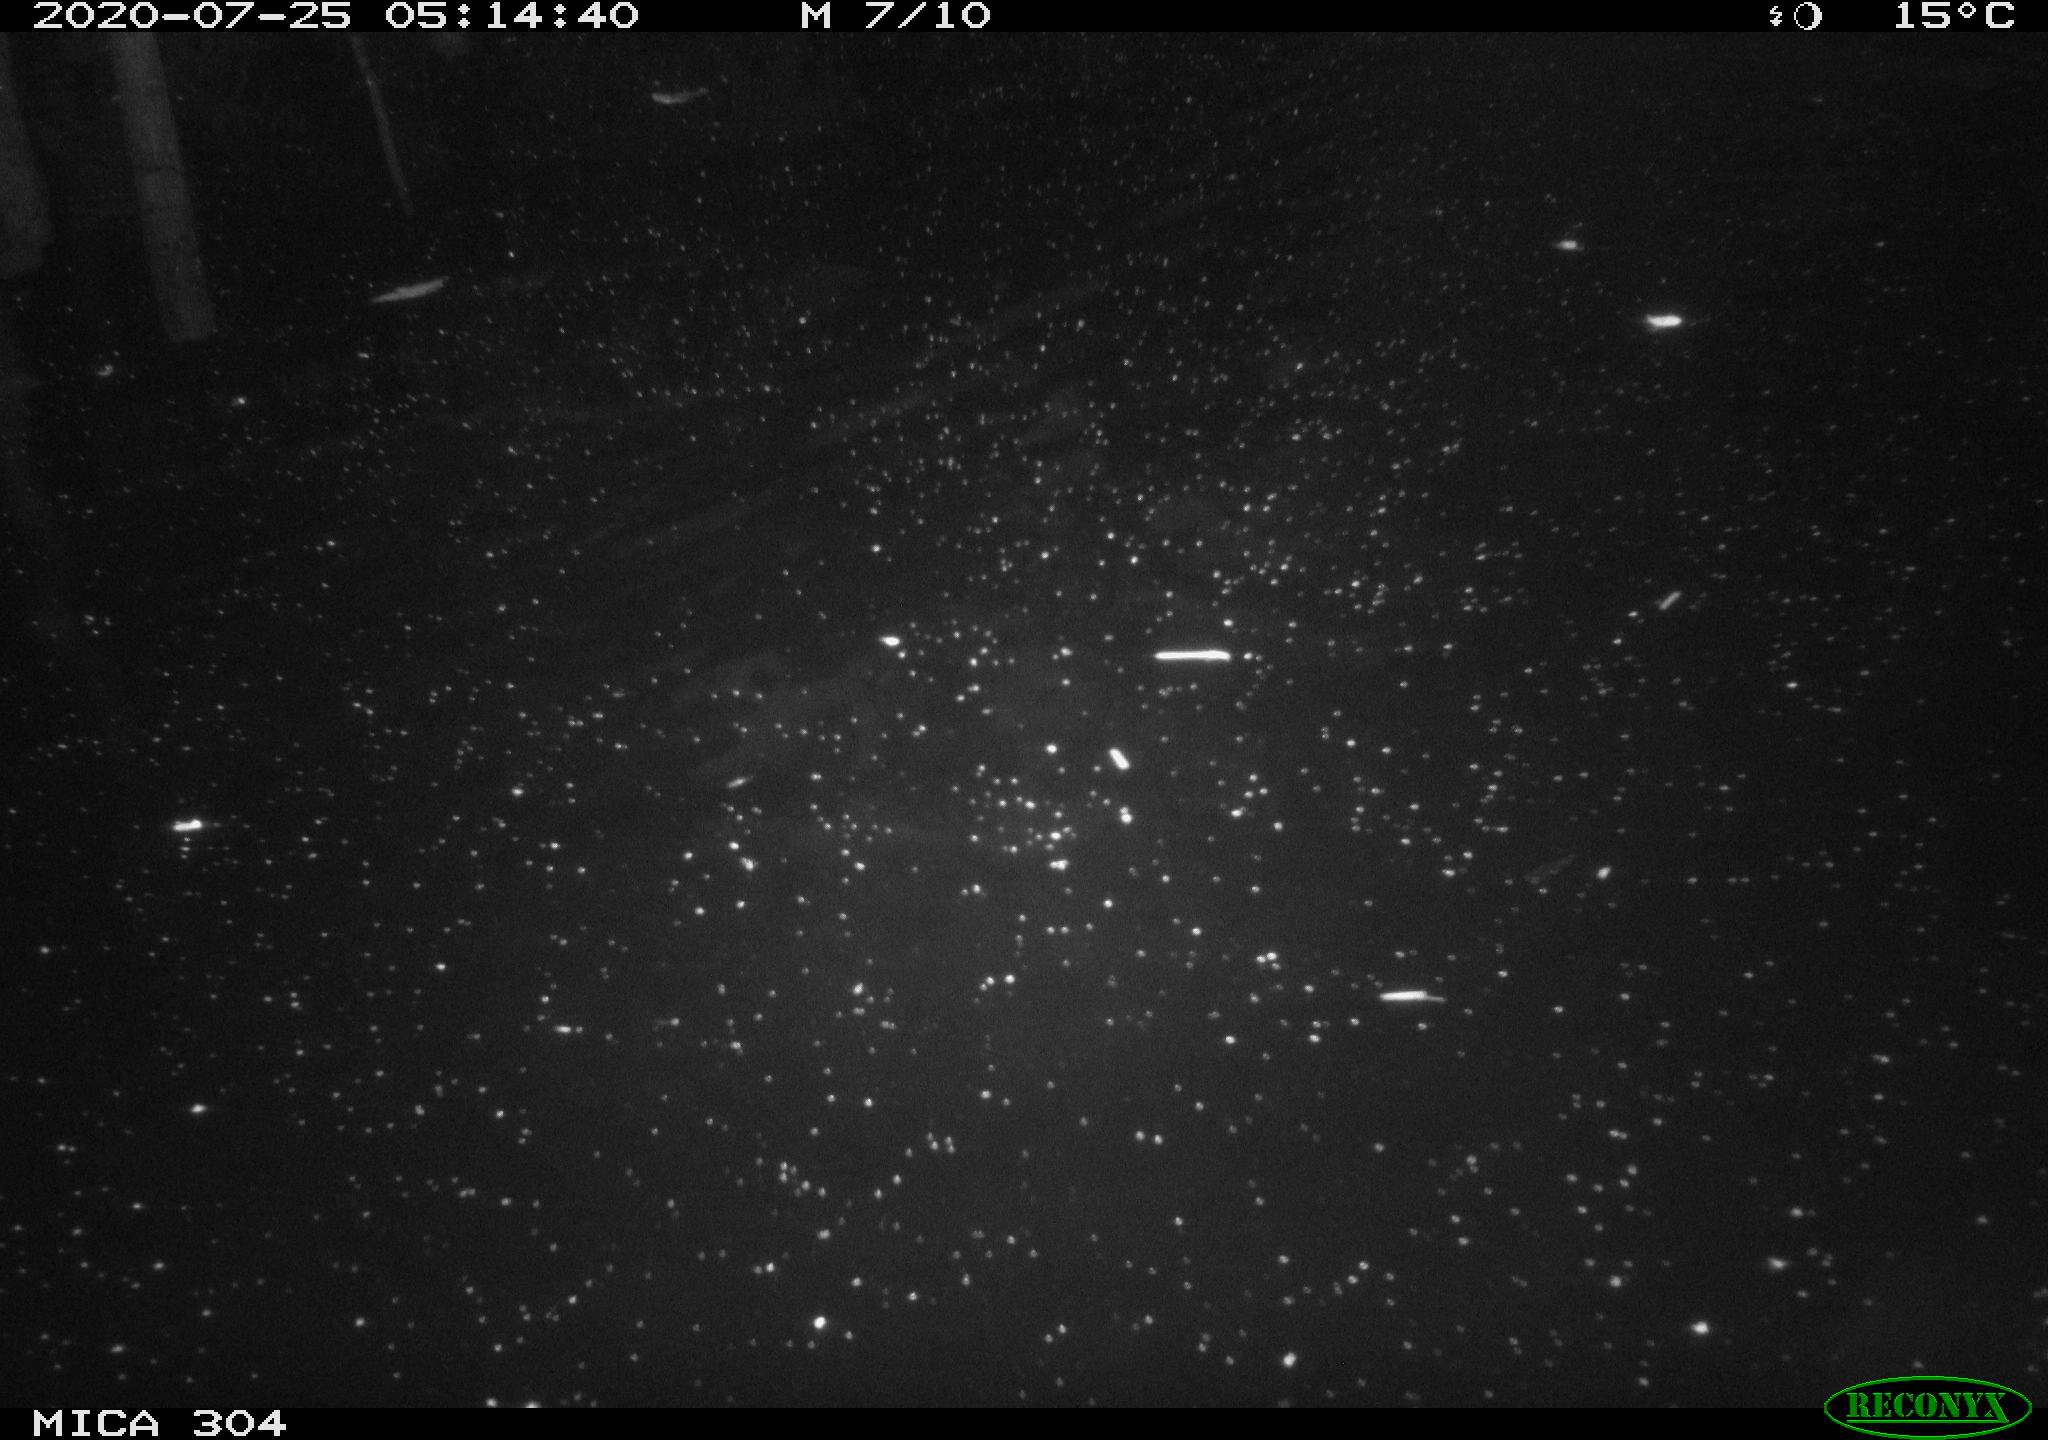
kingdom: Animalia
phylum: Chordata
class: Aves
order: Anseriformes
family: Anatidae
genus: Anas
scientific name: Anas platyrhynchos
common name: Mallard
